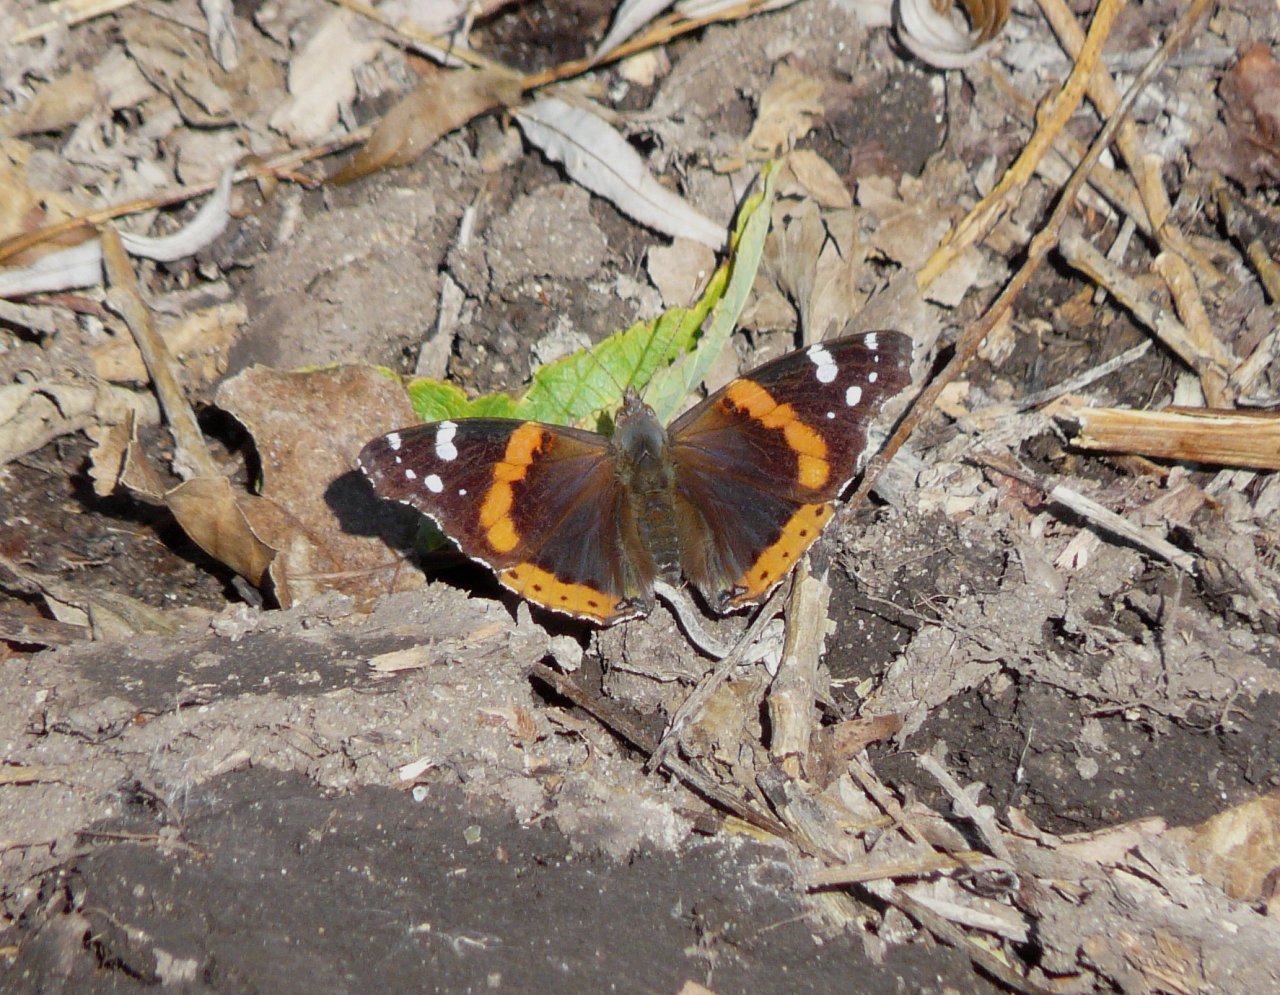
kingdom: Animalia
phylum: Arthropoda
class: Insecta
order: Lepidoptera
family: Nymphalidae
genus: Vanessa
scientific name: Vanessa atalanta
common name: Red Admiral
